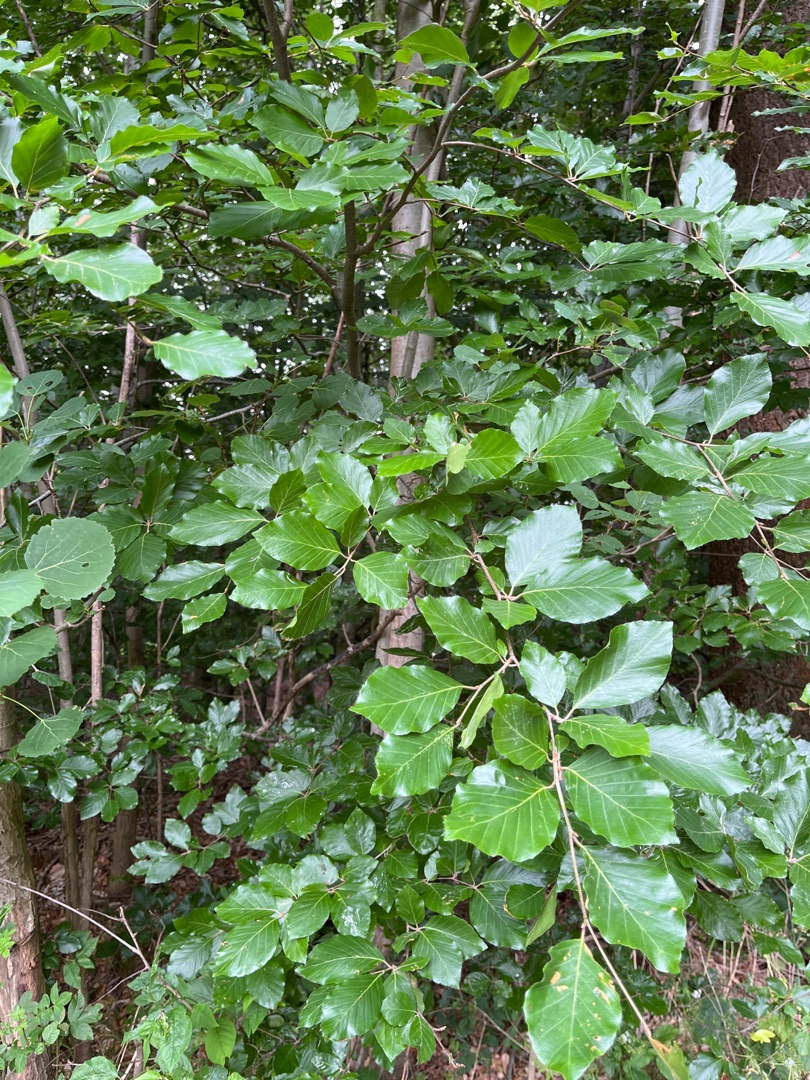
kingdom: Plantae
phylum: Tracheophyta
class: Magnoliopsida
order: Fagales
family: Fagaceae
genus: Fagus
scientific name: Fagus sylvatica
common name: Bøg
